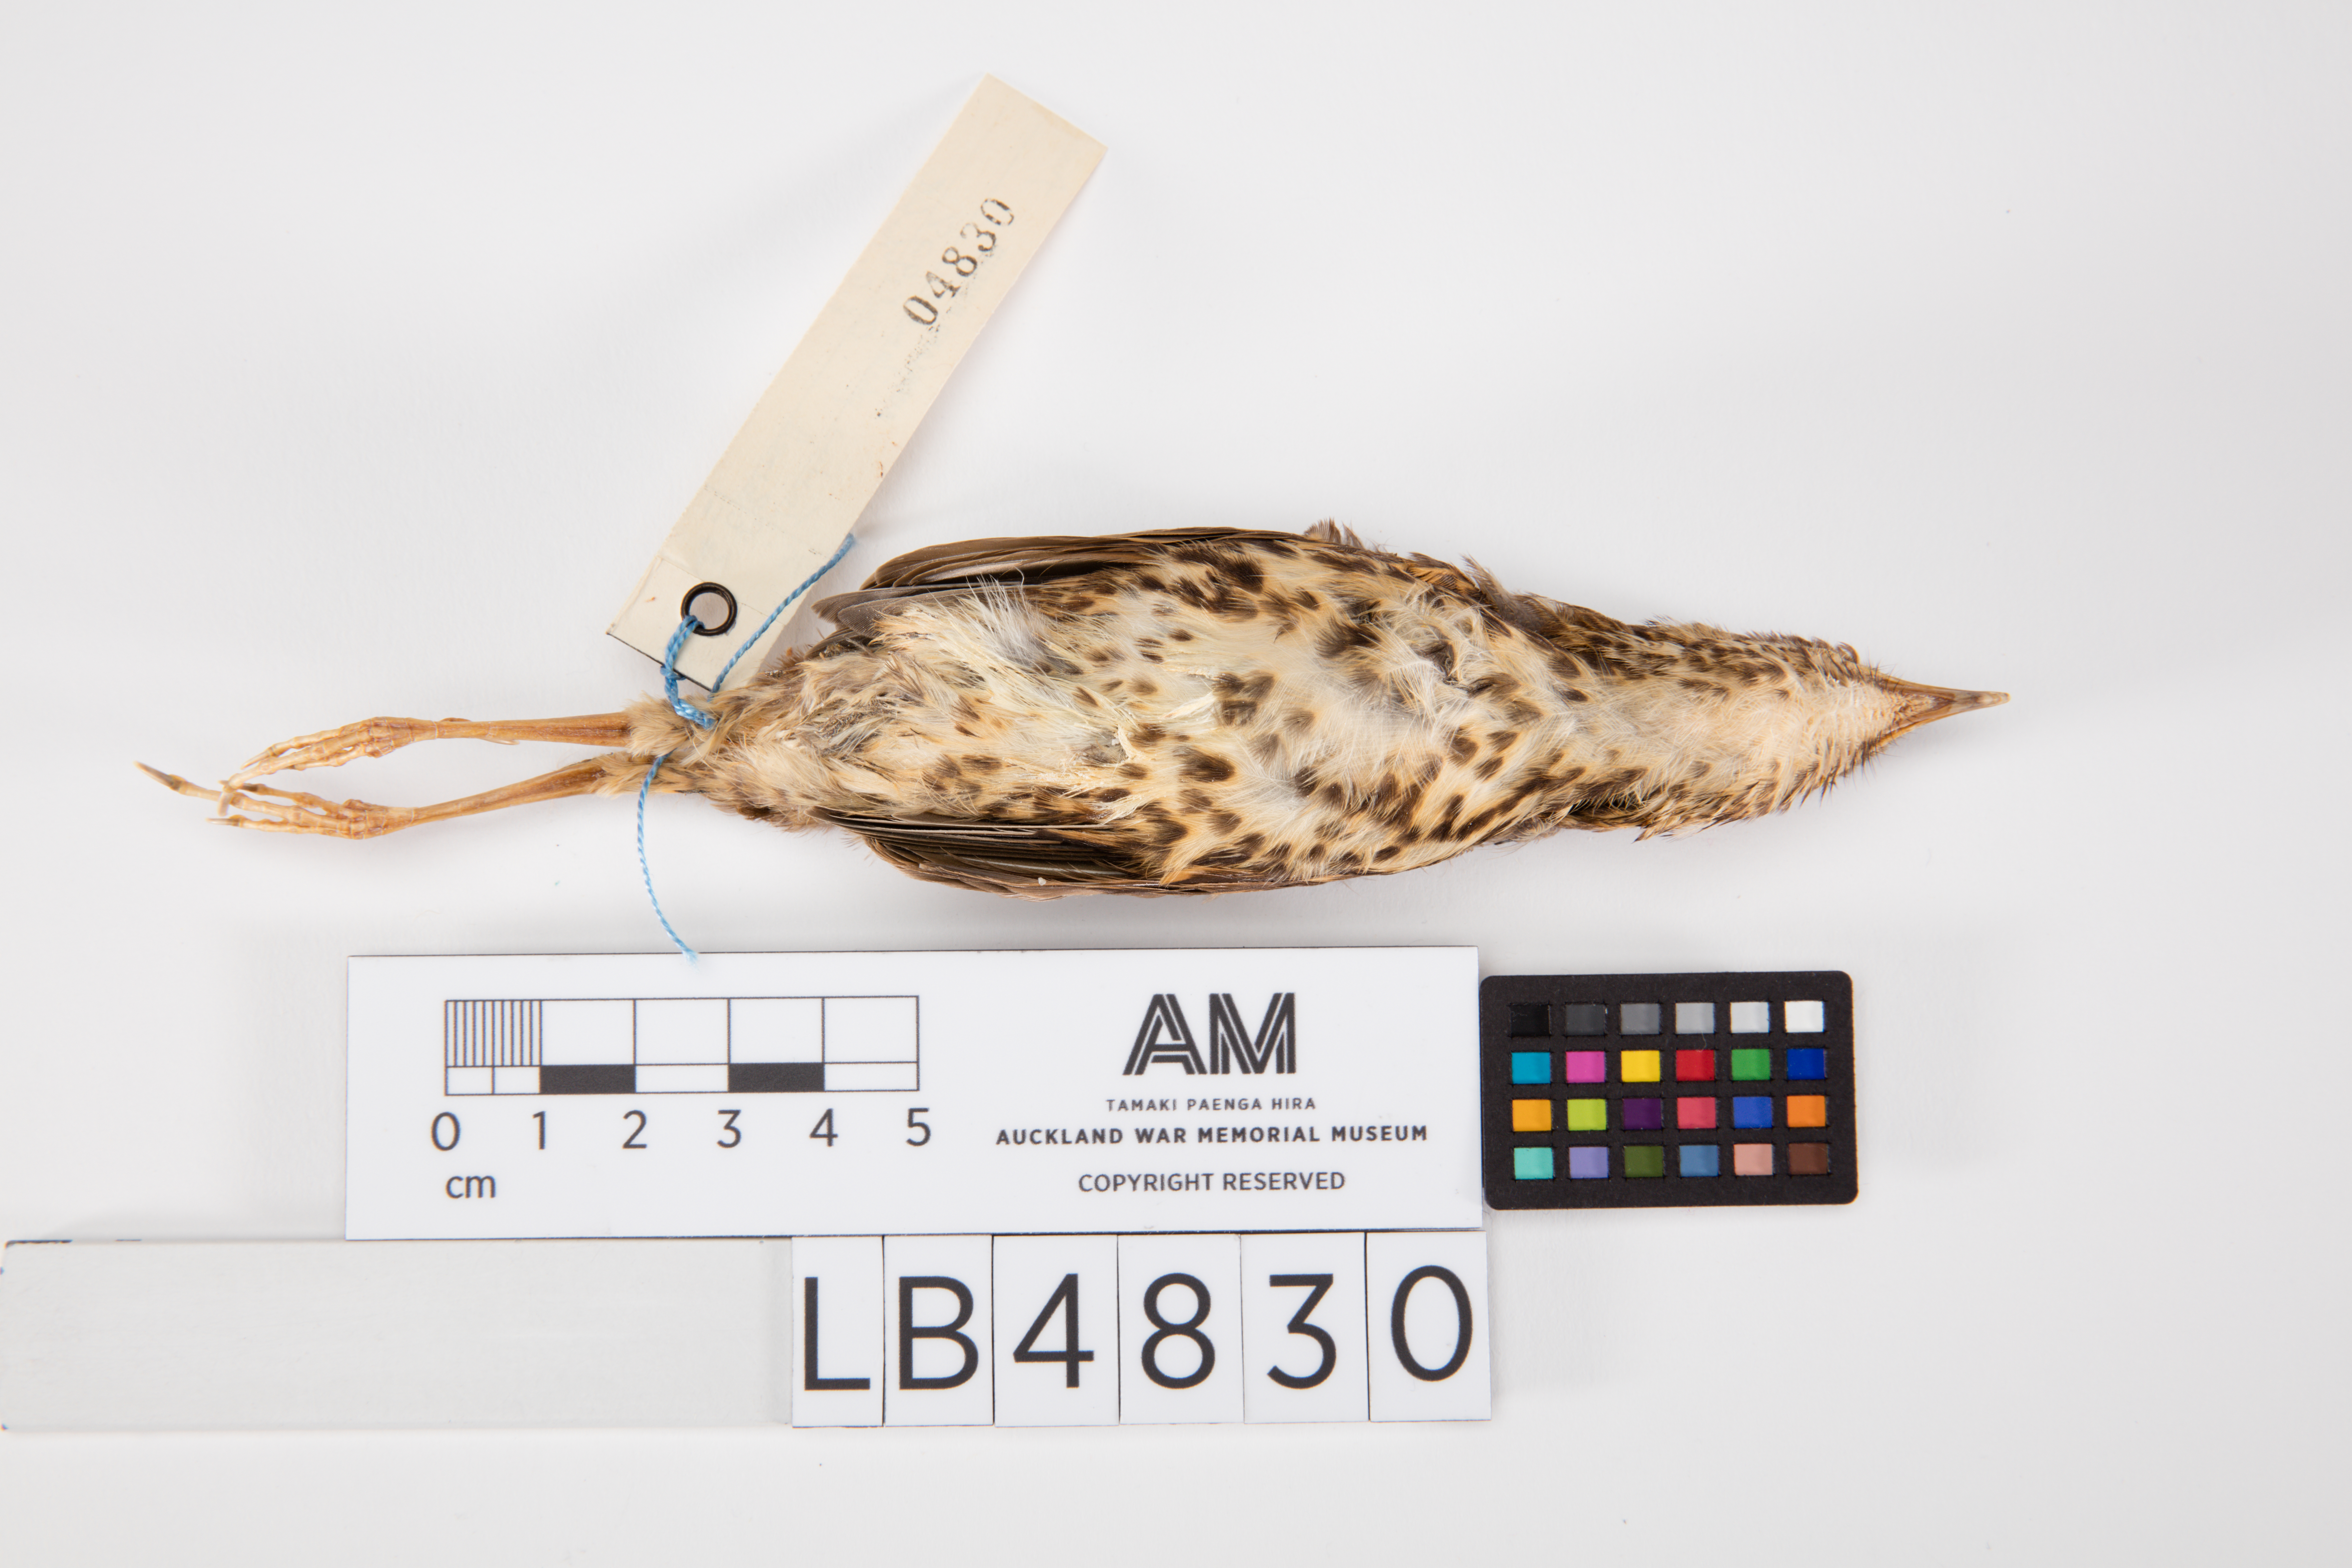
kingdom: Animalia
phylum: Chordata
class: Aves
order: Passeriformes
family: Turdidae
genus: Turdus
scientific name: Turdus philomelos
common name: Song thrush
